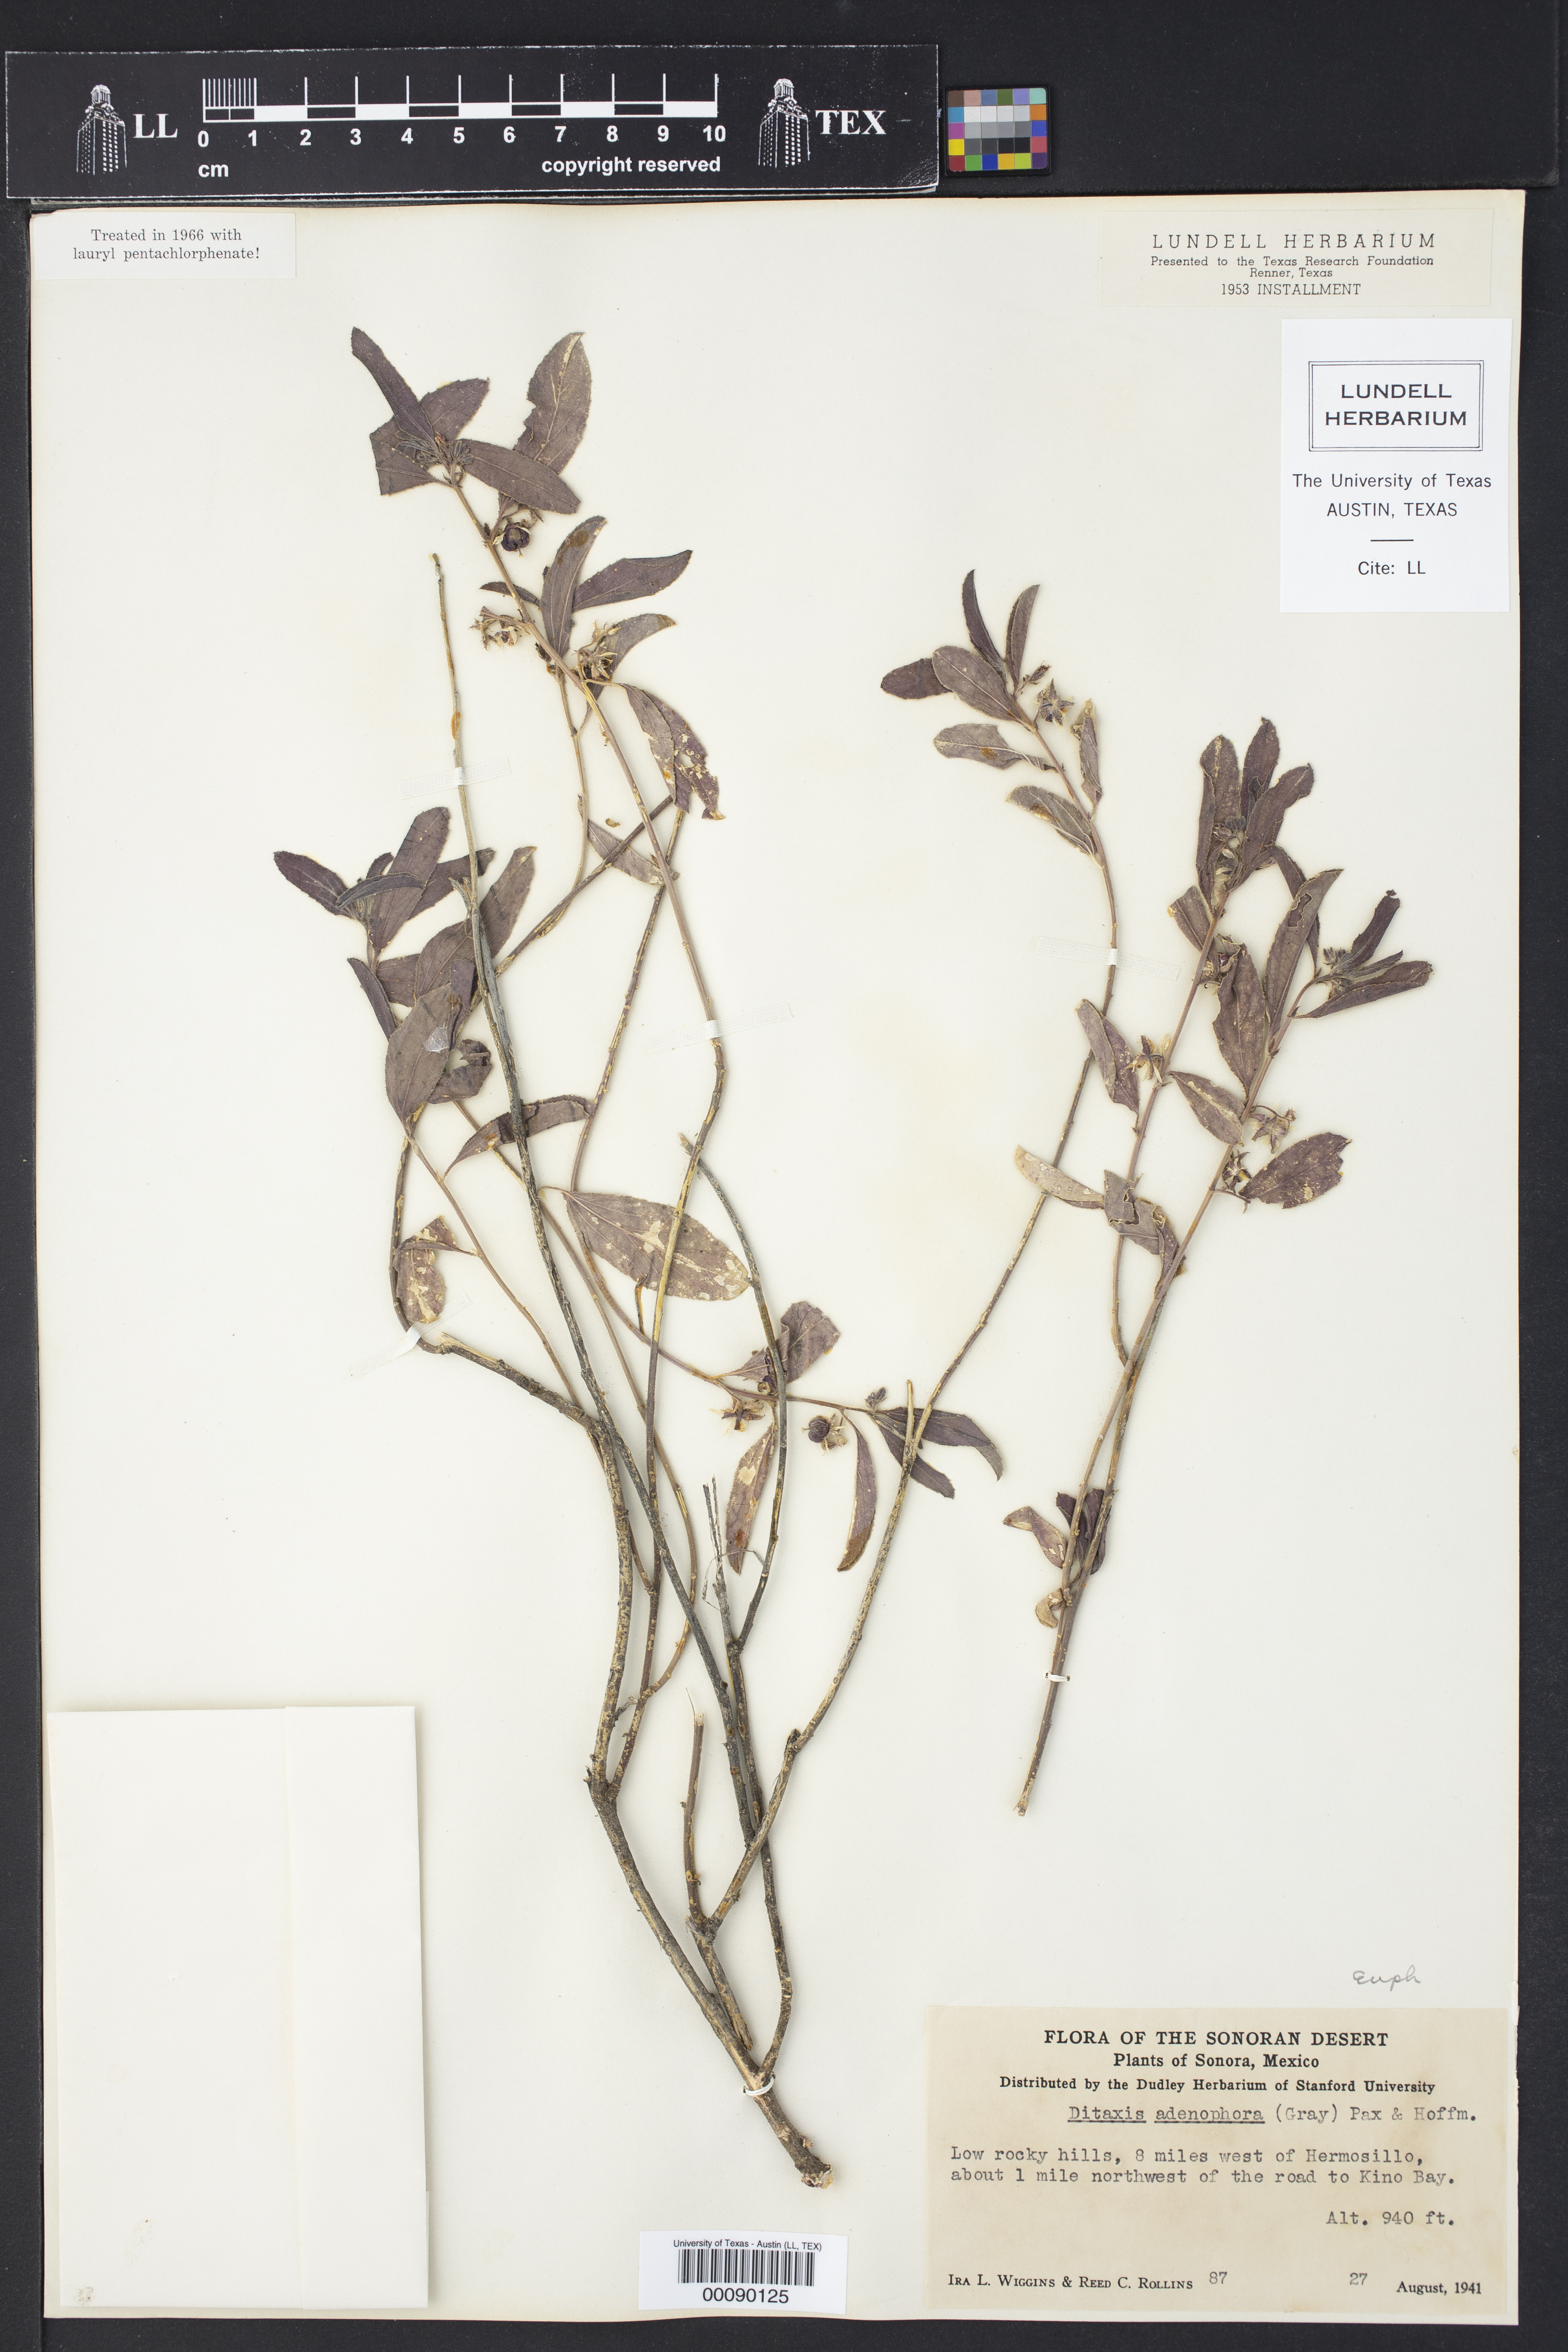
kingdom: Plantae
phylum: Tracheophyta
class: Magnoliopsida
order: Malpighiales
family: Euphorbiaceae
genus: Ditaxis
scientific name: Ditaxis adenophora
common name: Glandular silverbush
